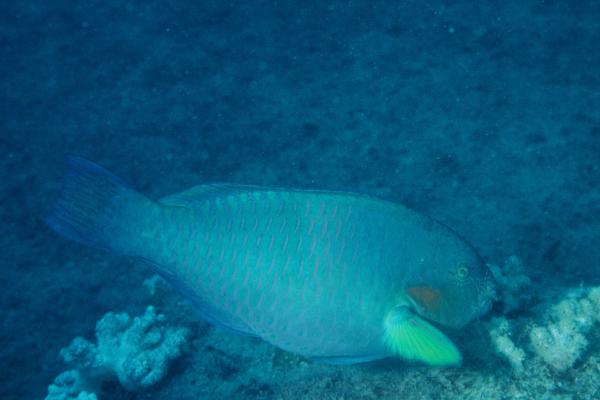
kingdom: Animalia
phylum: Chordata
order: Perciformes
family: Scaridae
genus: Scarus
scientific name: Scarus rivulatus
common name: Surf parrotfish
